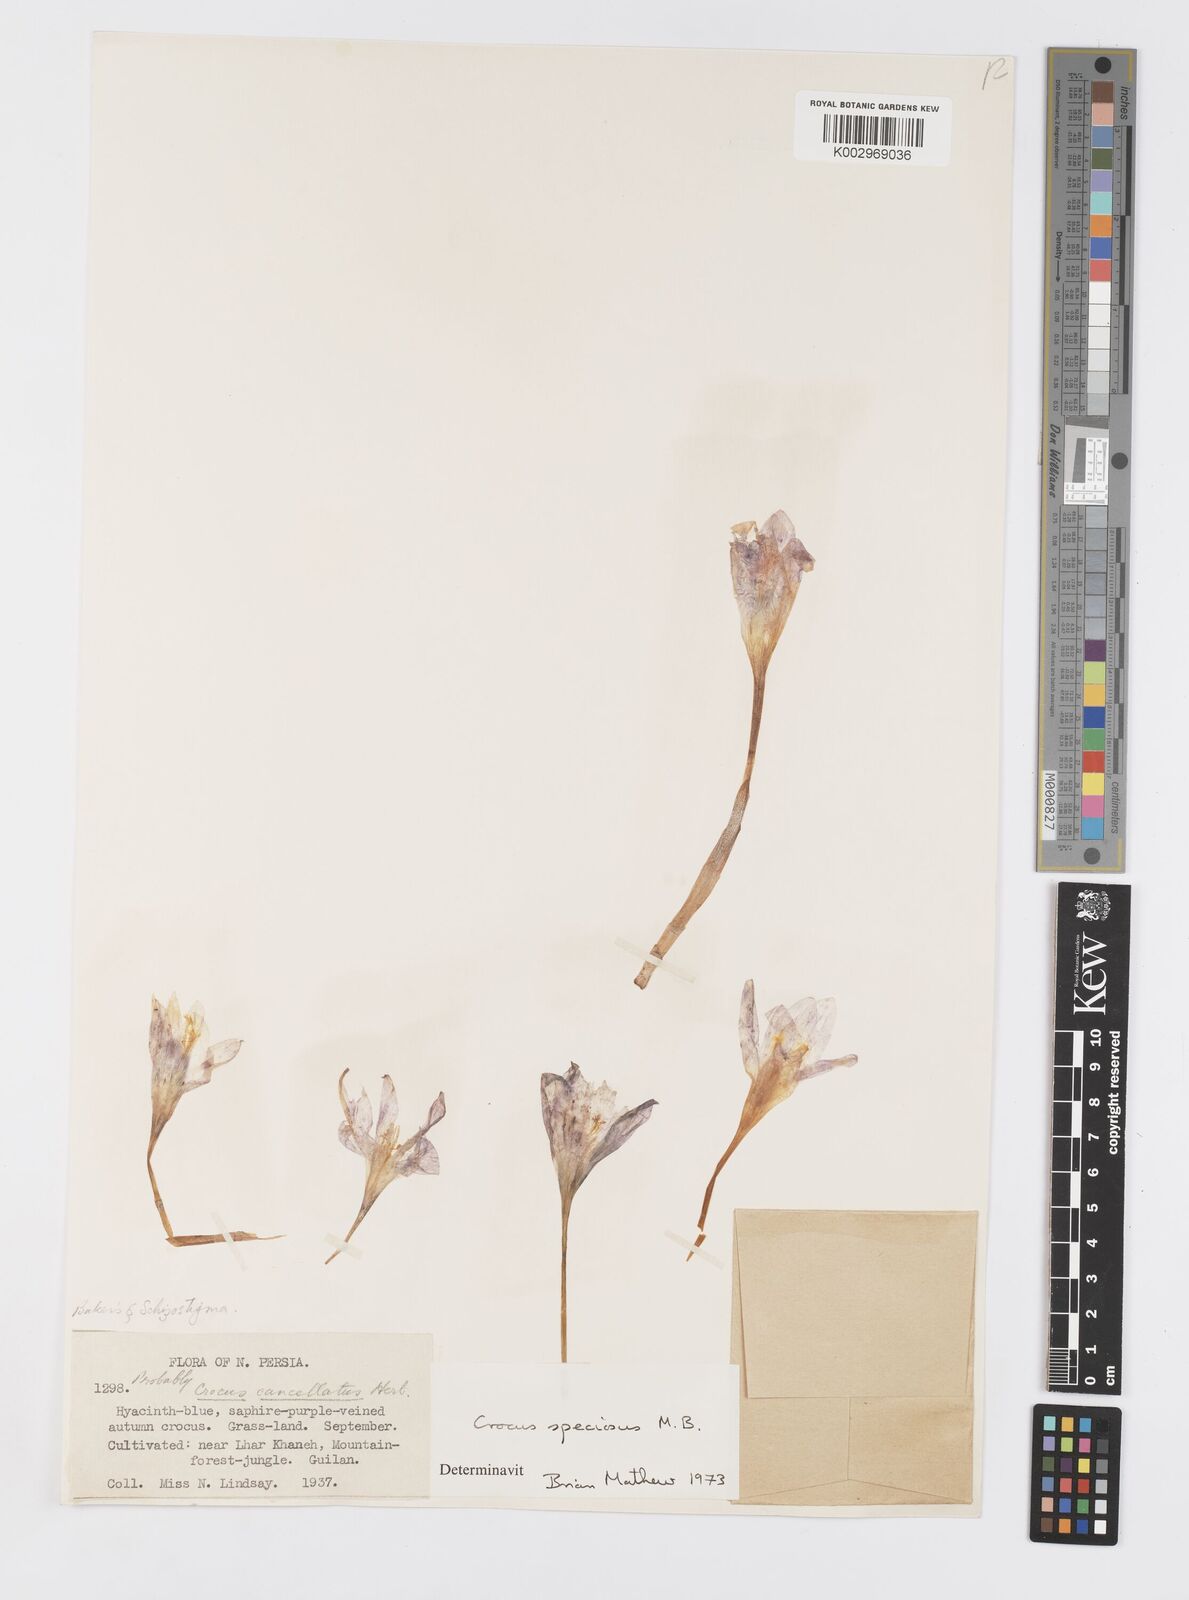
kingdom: Plantae
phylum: Tracheophyta
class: Liliopsida
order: Asparagales
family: Iridaceae
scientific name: Iridaceae
